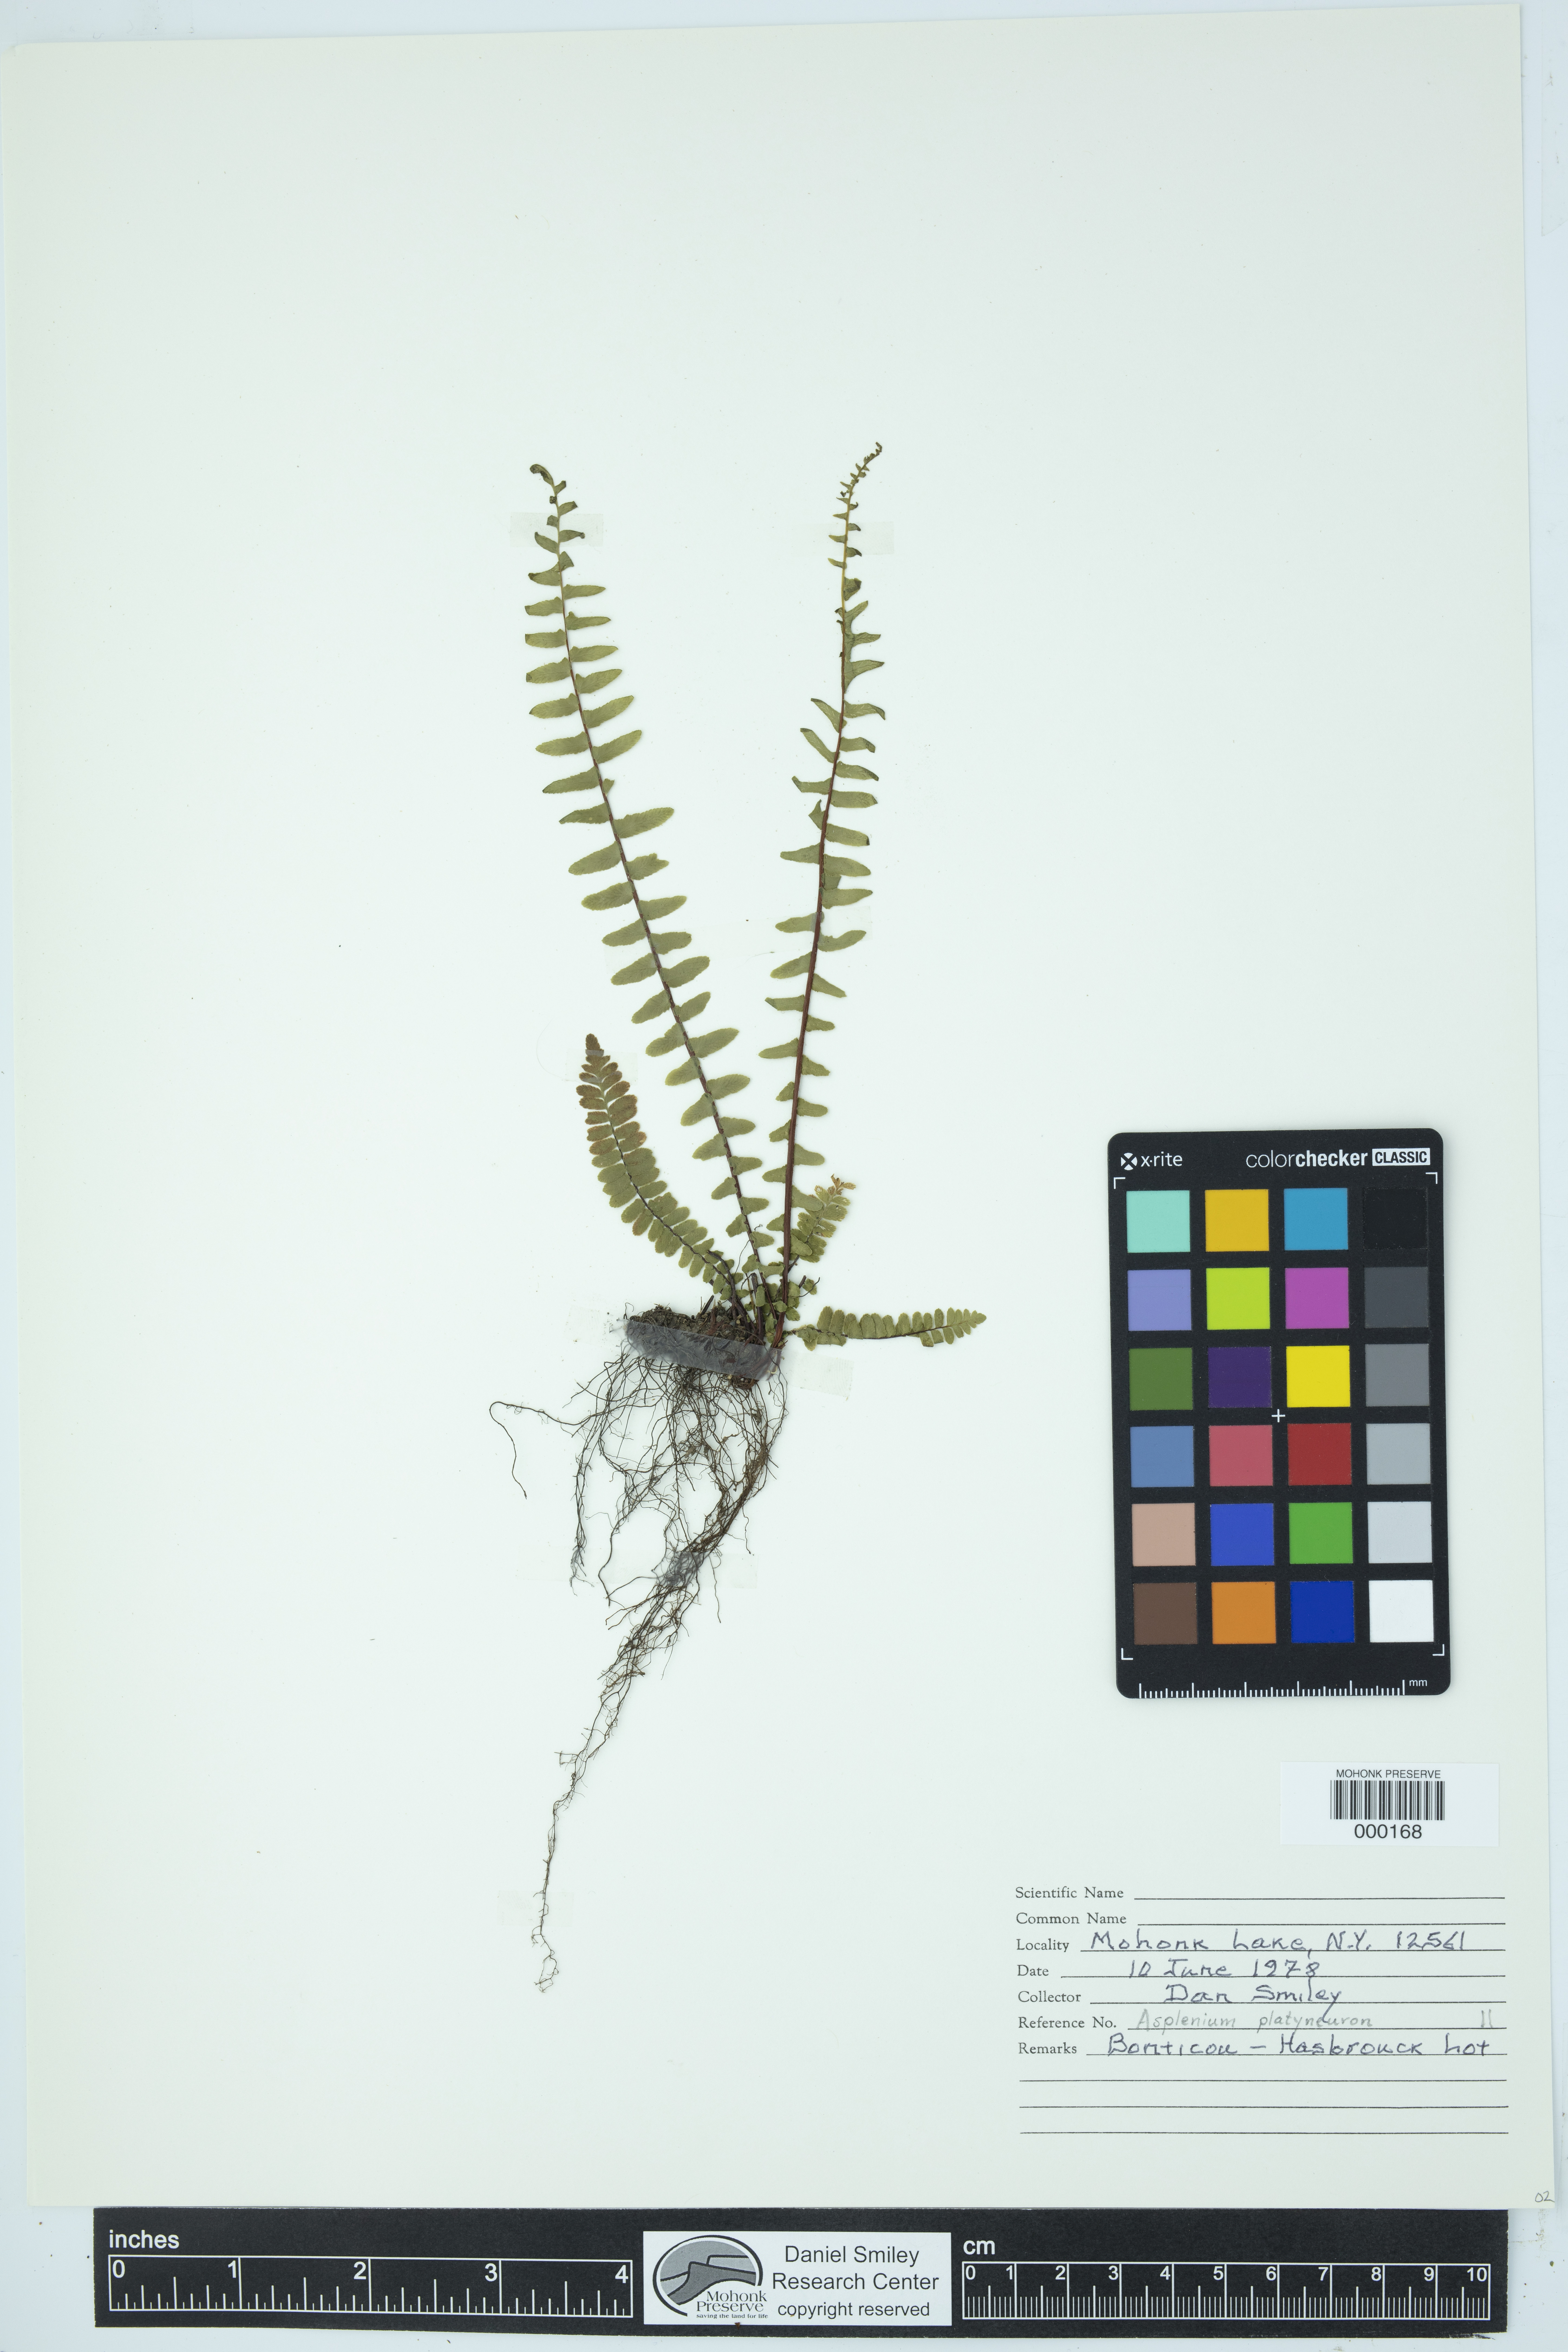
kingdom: Plantae
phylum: Tracheophyta
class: Polypodiopsida
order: Polypodiales
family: Aspleniaceae
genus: Asplenium
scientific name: Asplenium platyneuron
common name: Ebony spleenwort
